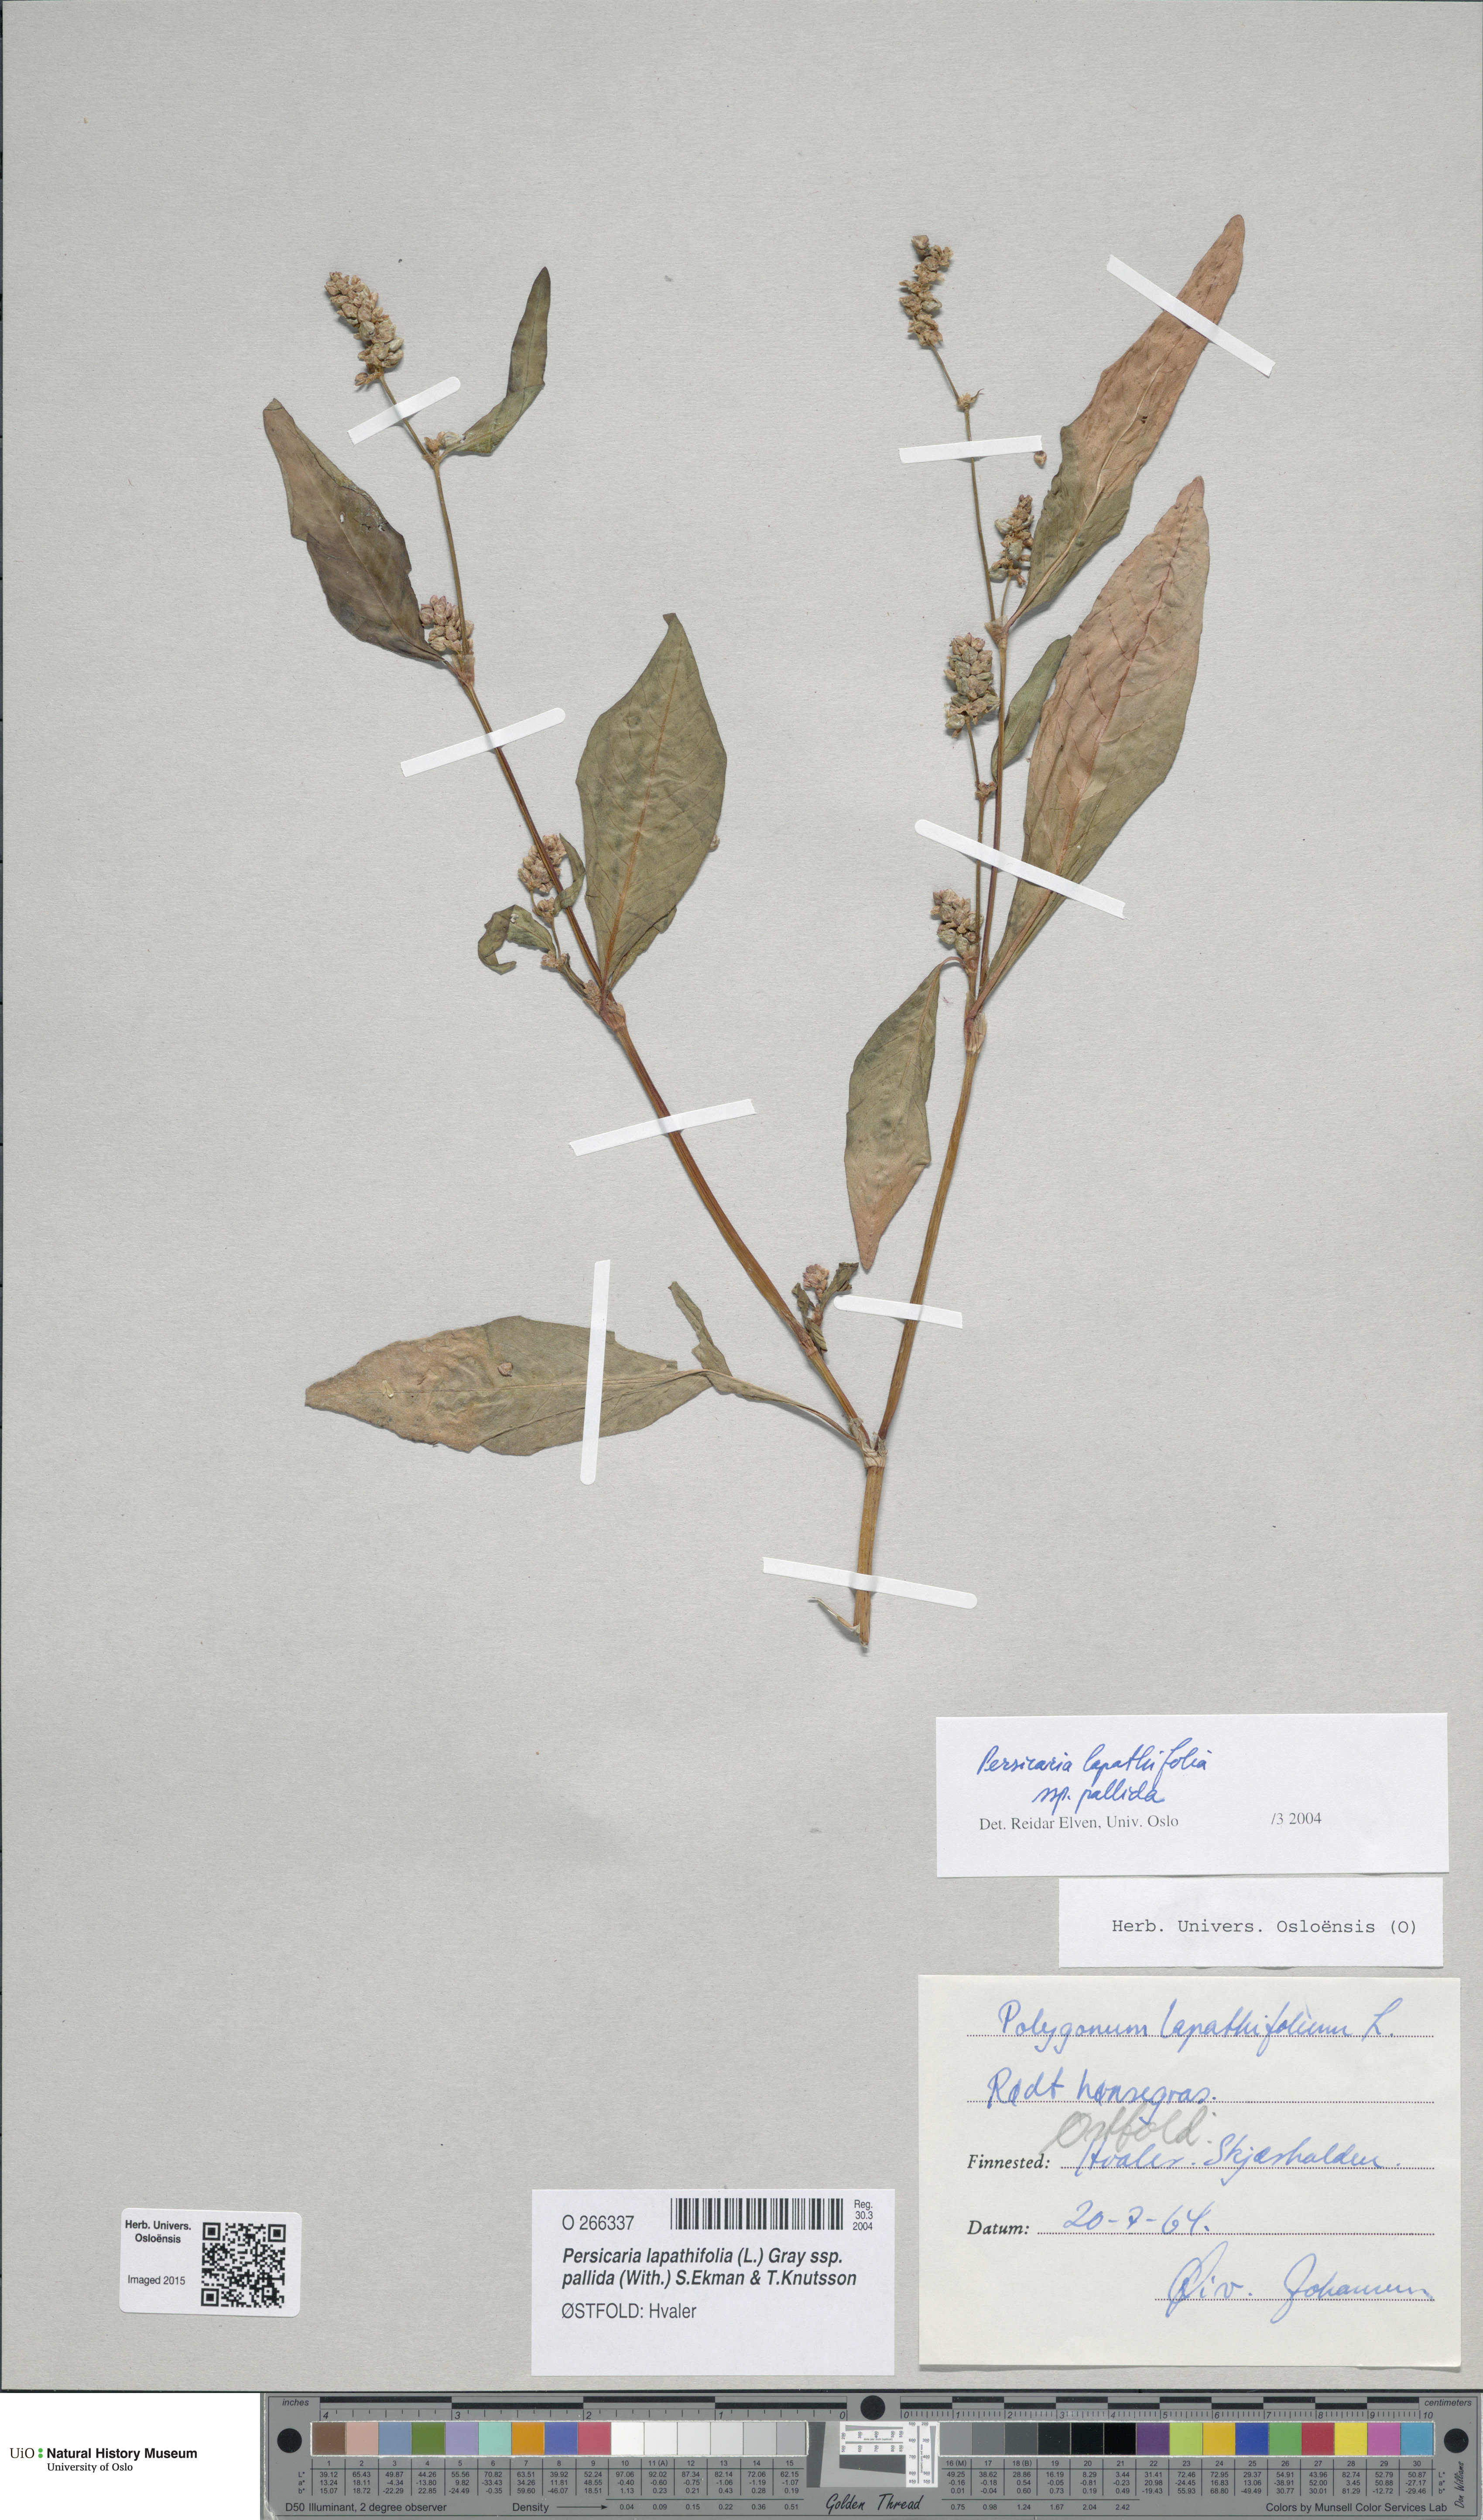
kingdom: Plantae
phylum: Tracheophyta
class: Magnoliopsida
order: Caryophyllales
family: Polygonaceae
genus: Persicaria
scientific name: Persicaria lapathifolia
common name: Curlytop knotweed
